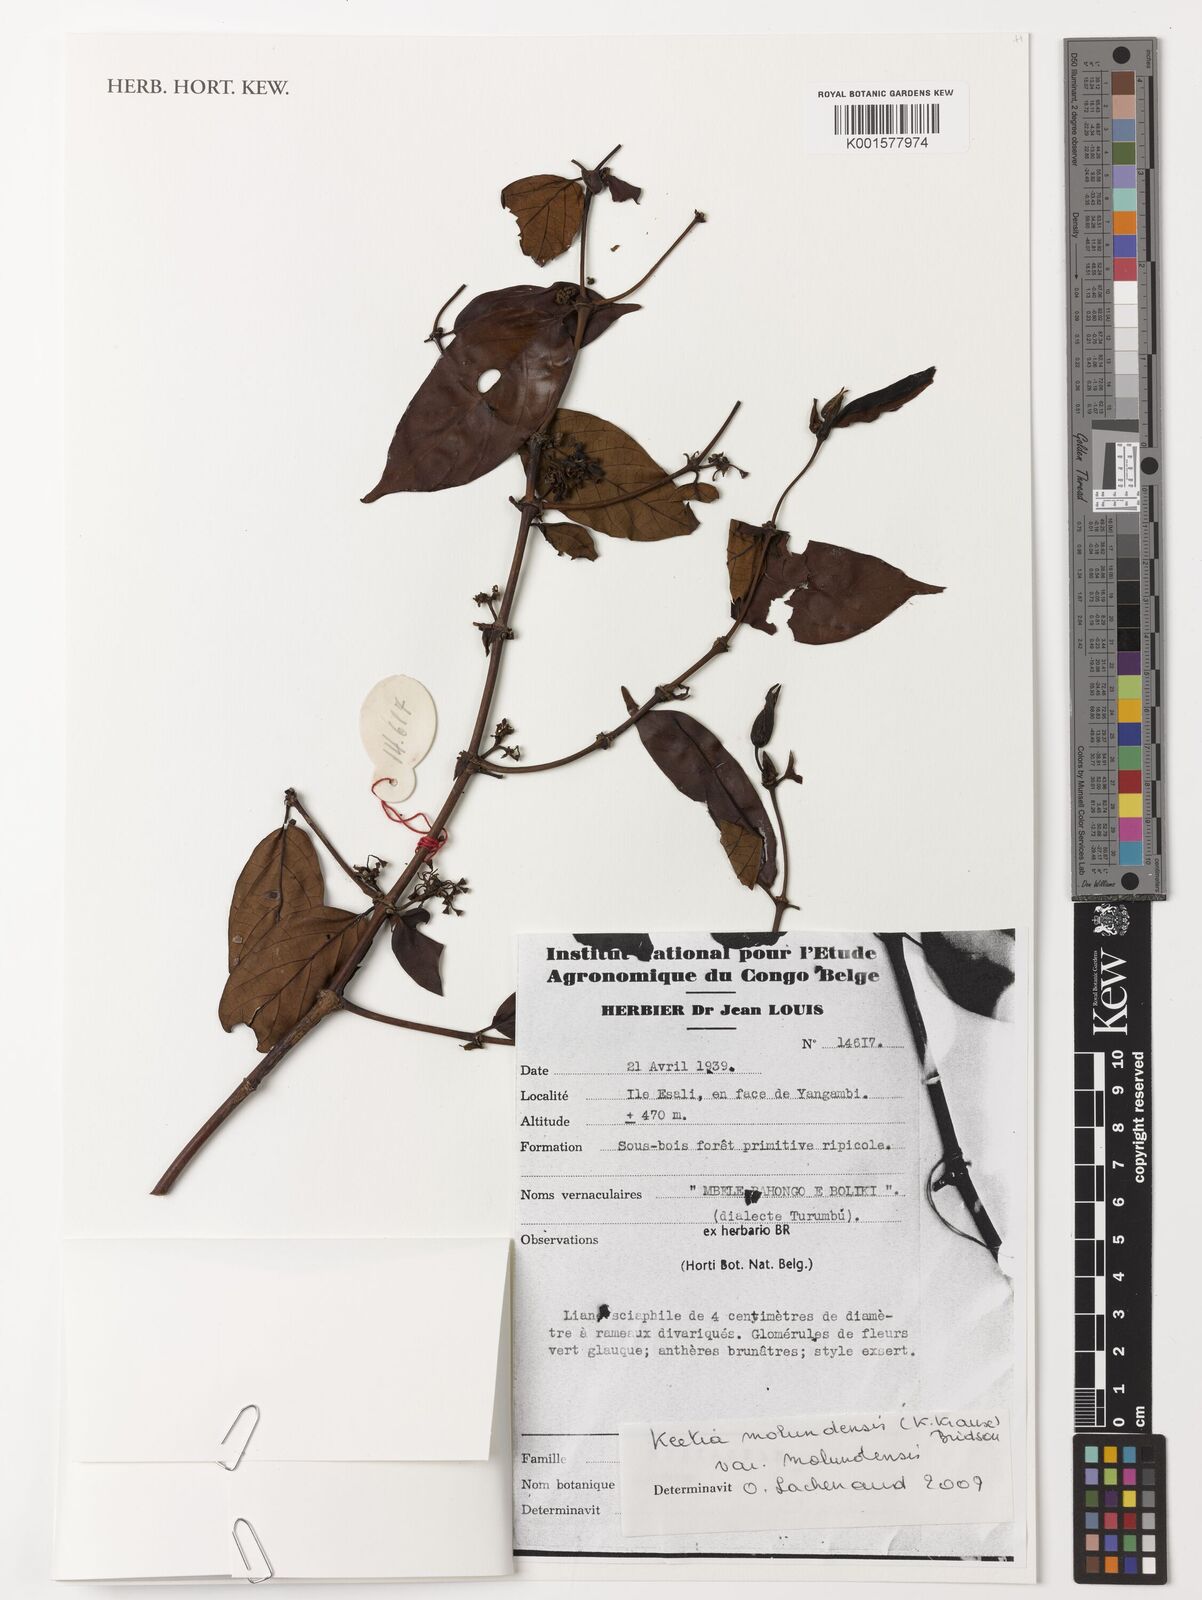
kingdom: Plantae
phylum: Tracheophyta
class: Magnoliopsida
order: Gentianales
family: Rubiaceae
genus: Keetia
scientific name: Keetia molundensis
